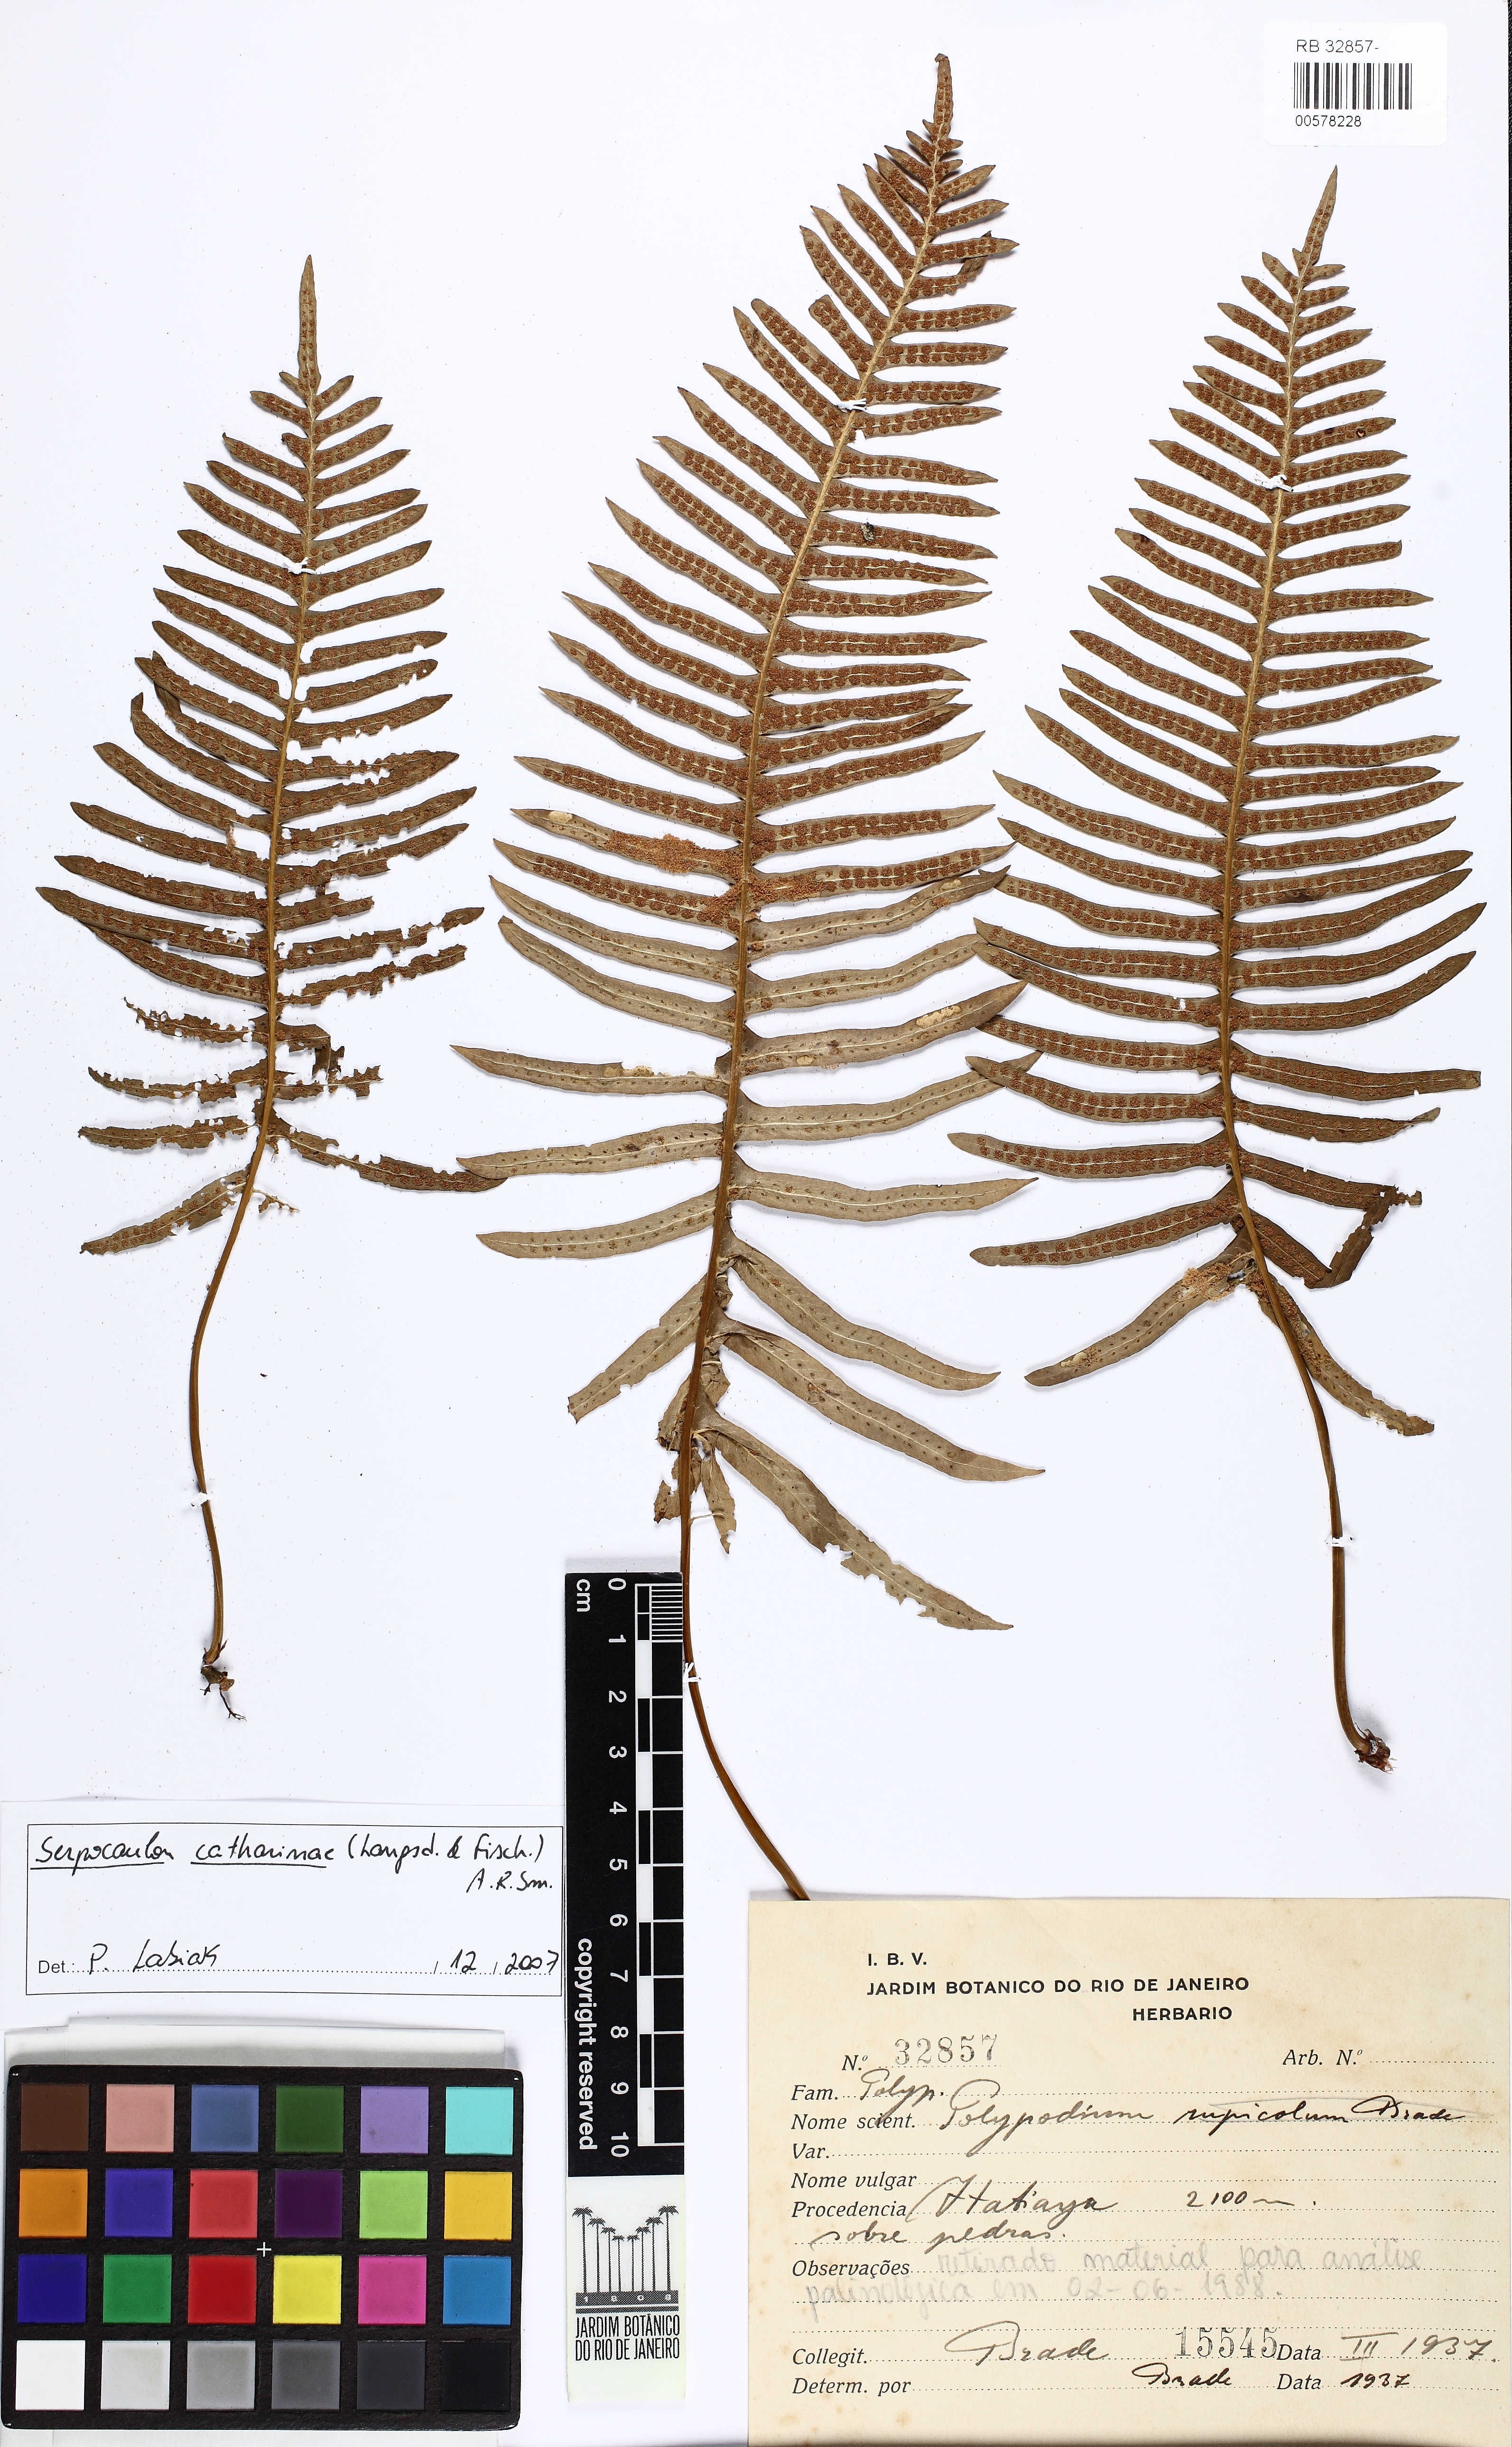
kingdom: Plantae
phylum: Tracheophyta
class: Polypodiopsida
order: Polypodiales
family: Polypodiaceae
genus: Serpocaulon
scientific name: Serpocaulon catharinae
